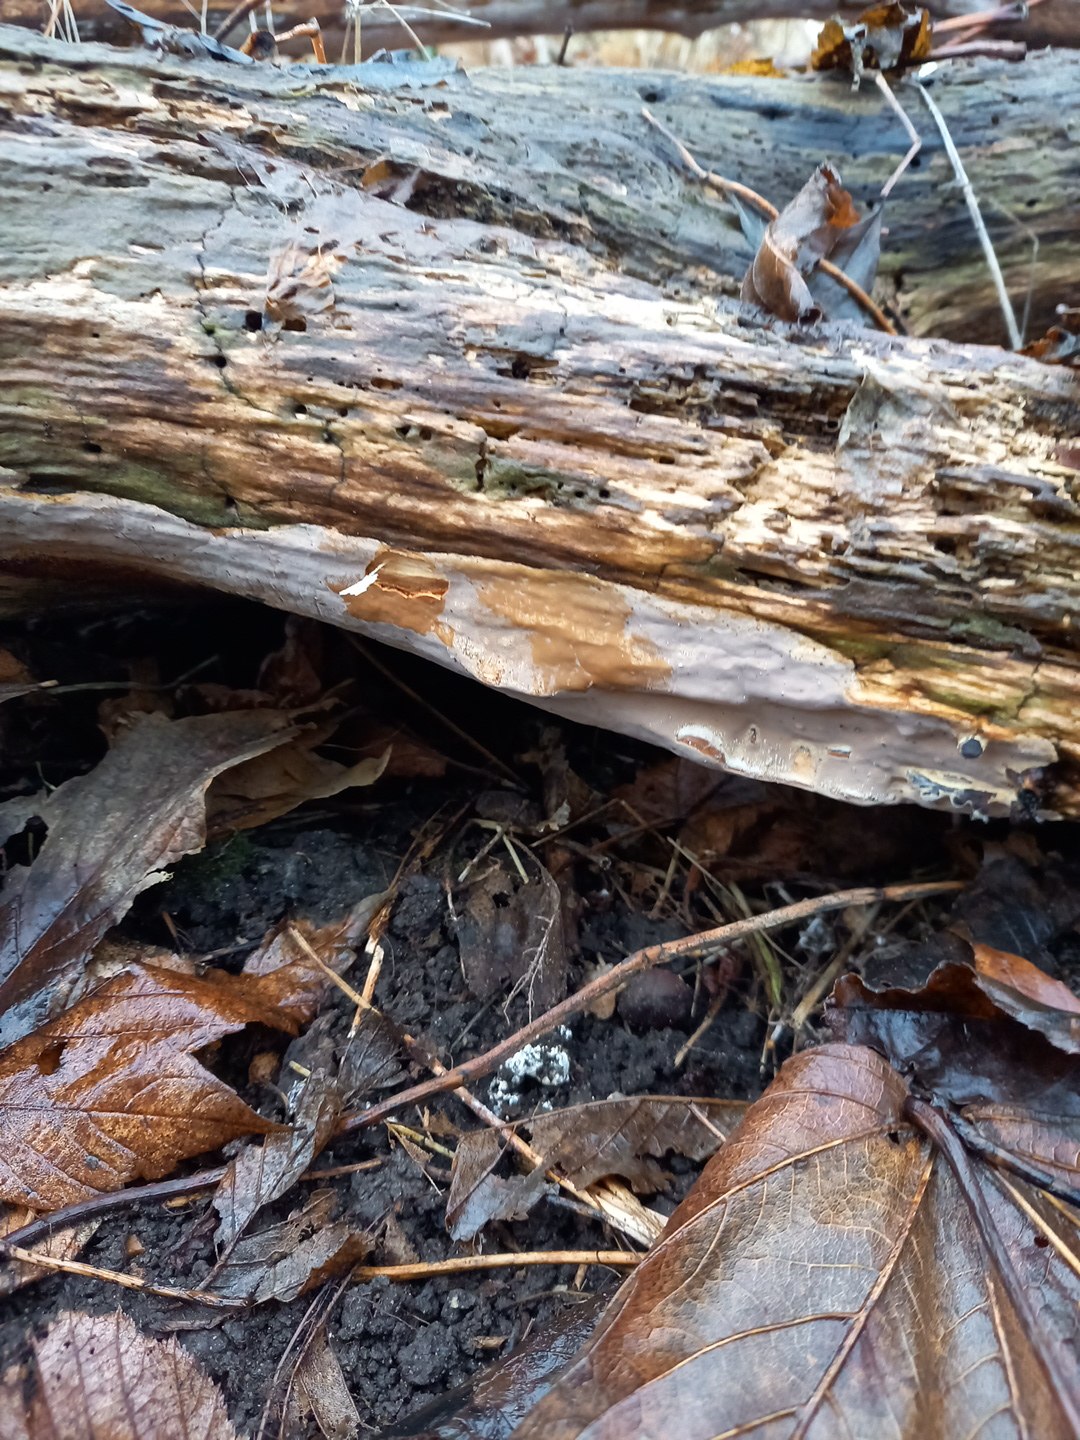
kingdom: Fungi
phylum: Basidiomycota
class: Agaricomycetes
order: Russulales
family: Peniophoraceae
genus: Scytinostroma
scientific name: Scytinostroma hemidichophyticum
